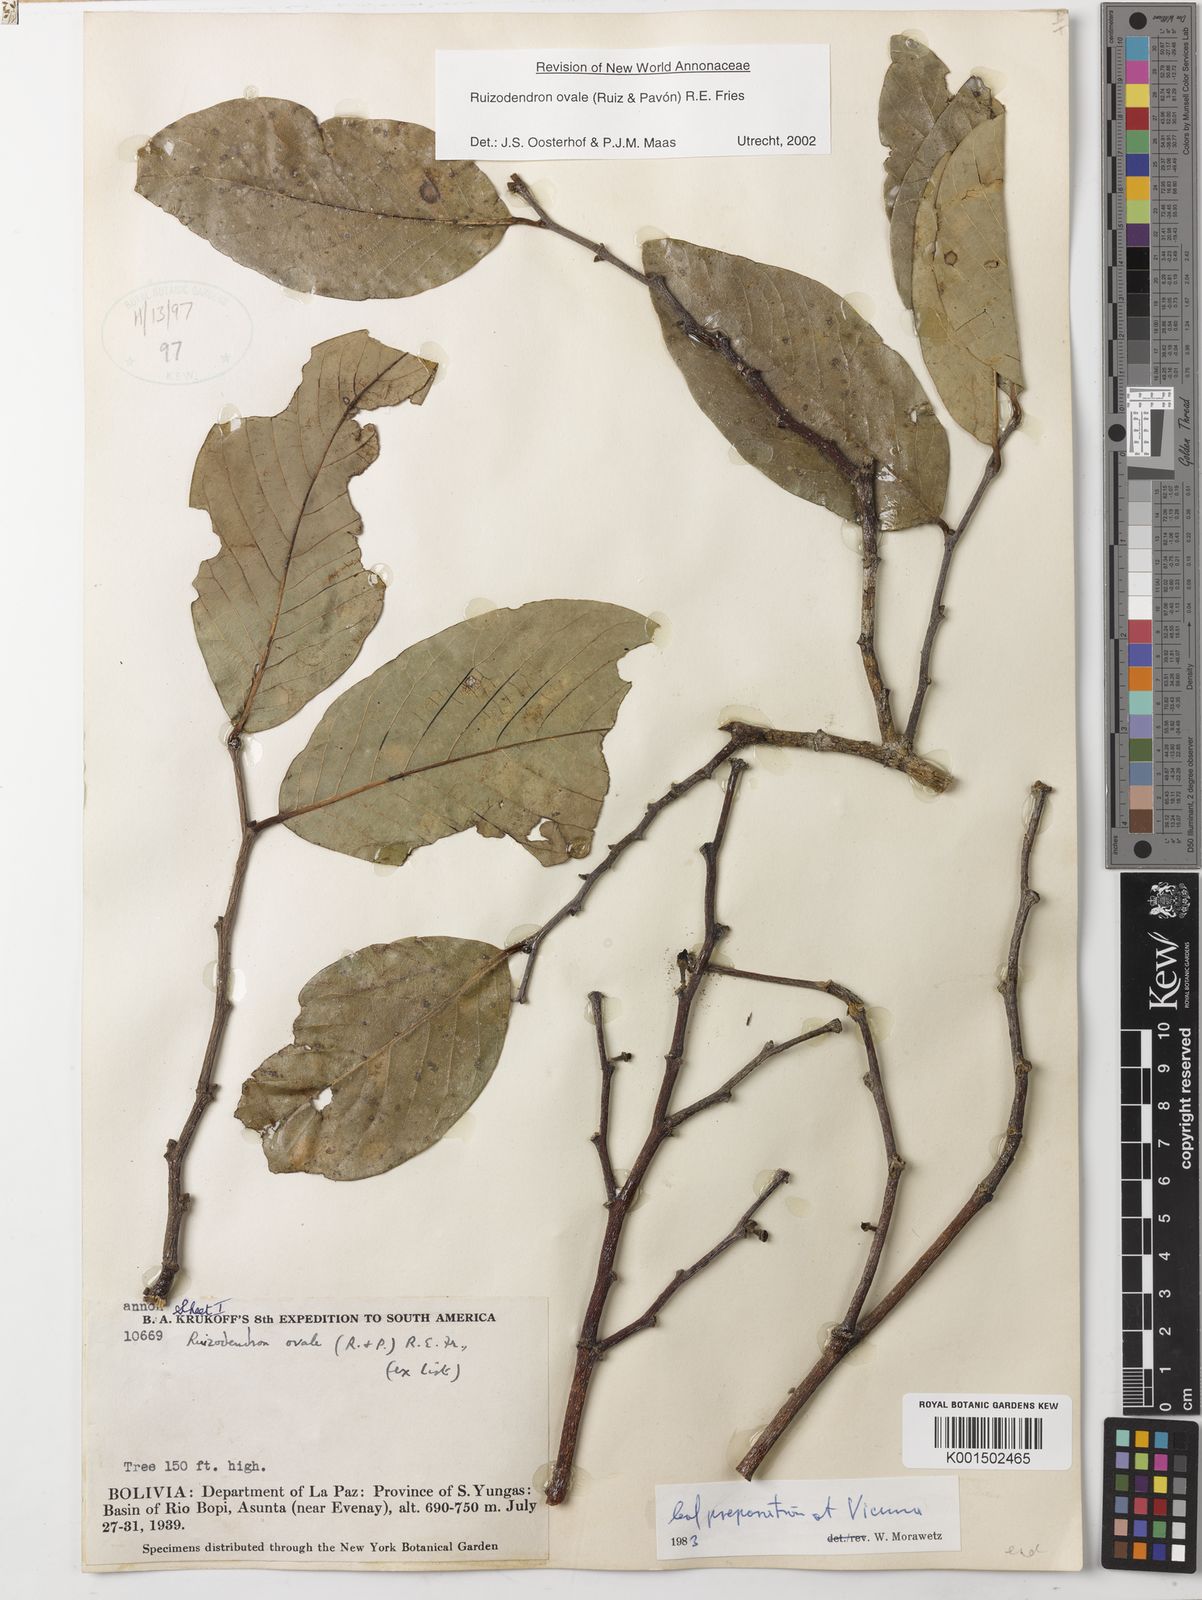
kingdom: Plantae
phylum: Tracheophyta
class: Magnoliopsida
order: Magnoliales
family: Annonaceae
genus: Ruizodendron
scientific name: Ruizodendron ovale
